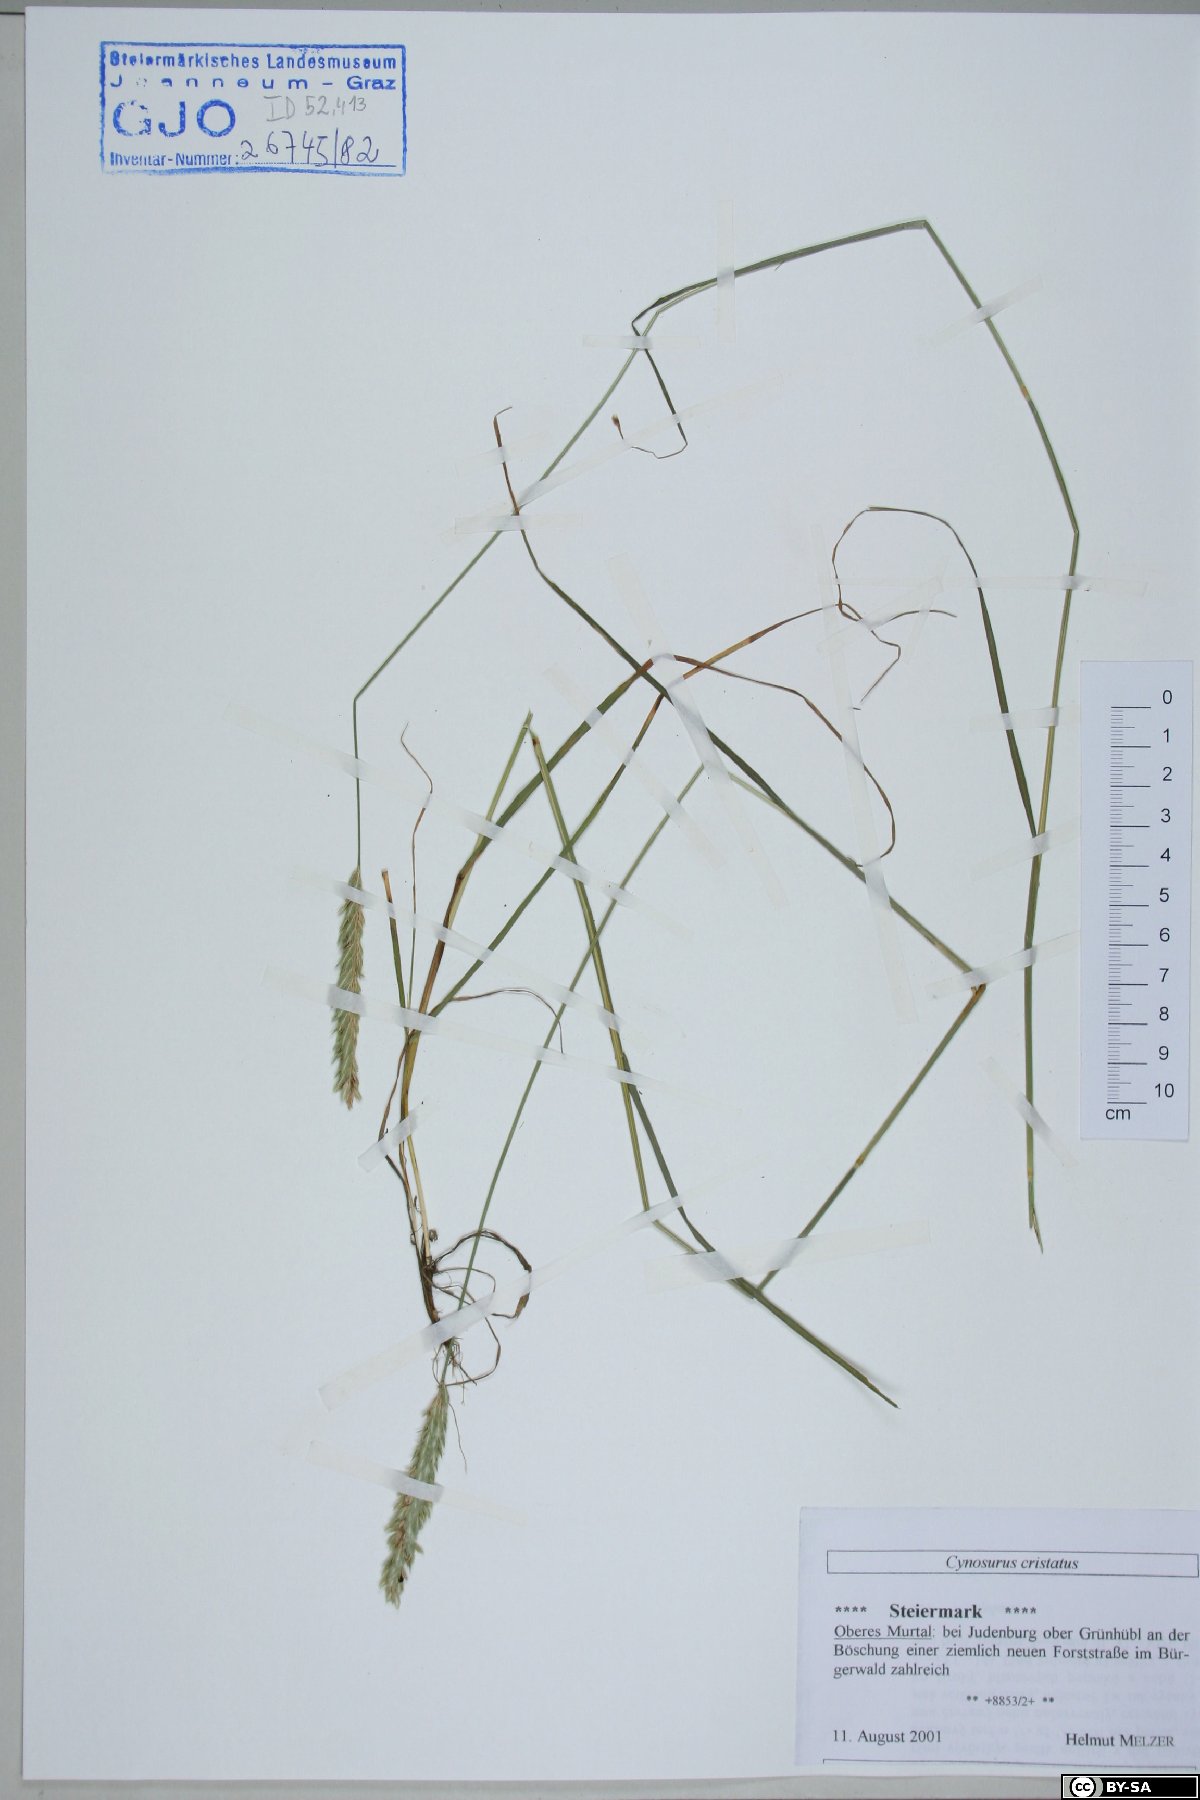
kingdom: Plantae
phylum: Tracheophyta
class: Liliopsida
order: Poales
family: Poaceae
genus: Cynosurus
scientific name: Cynosurus cristatus
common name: Crested dog's-tail
